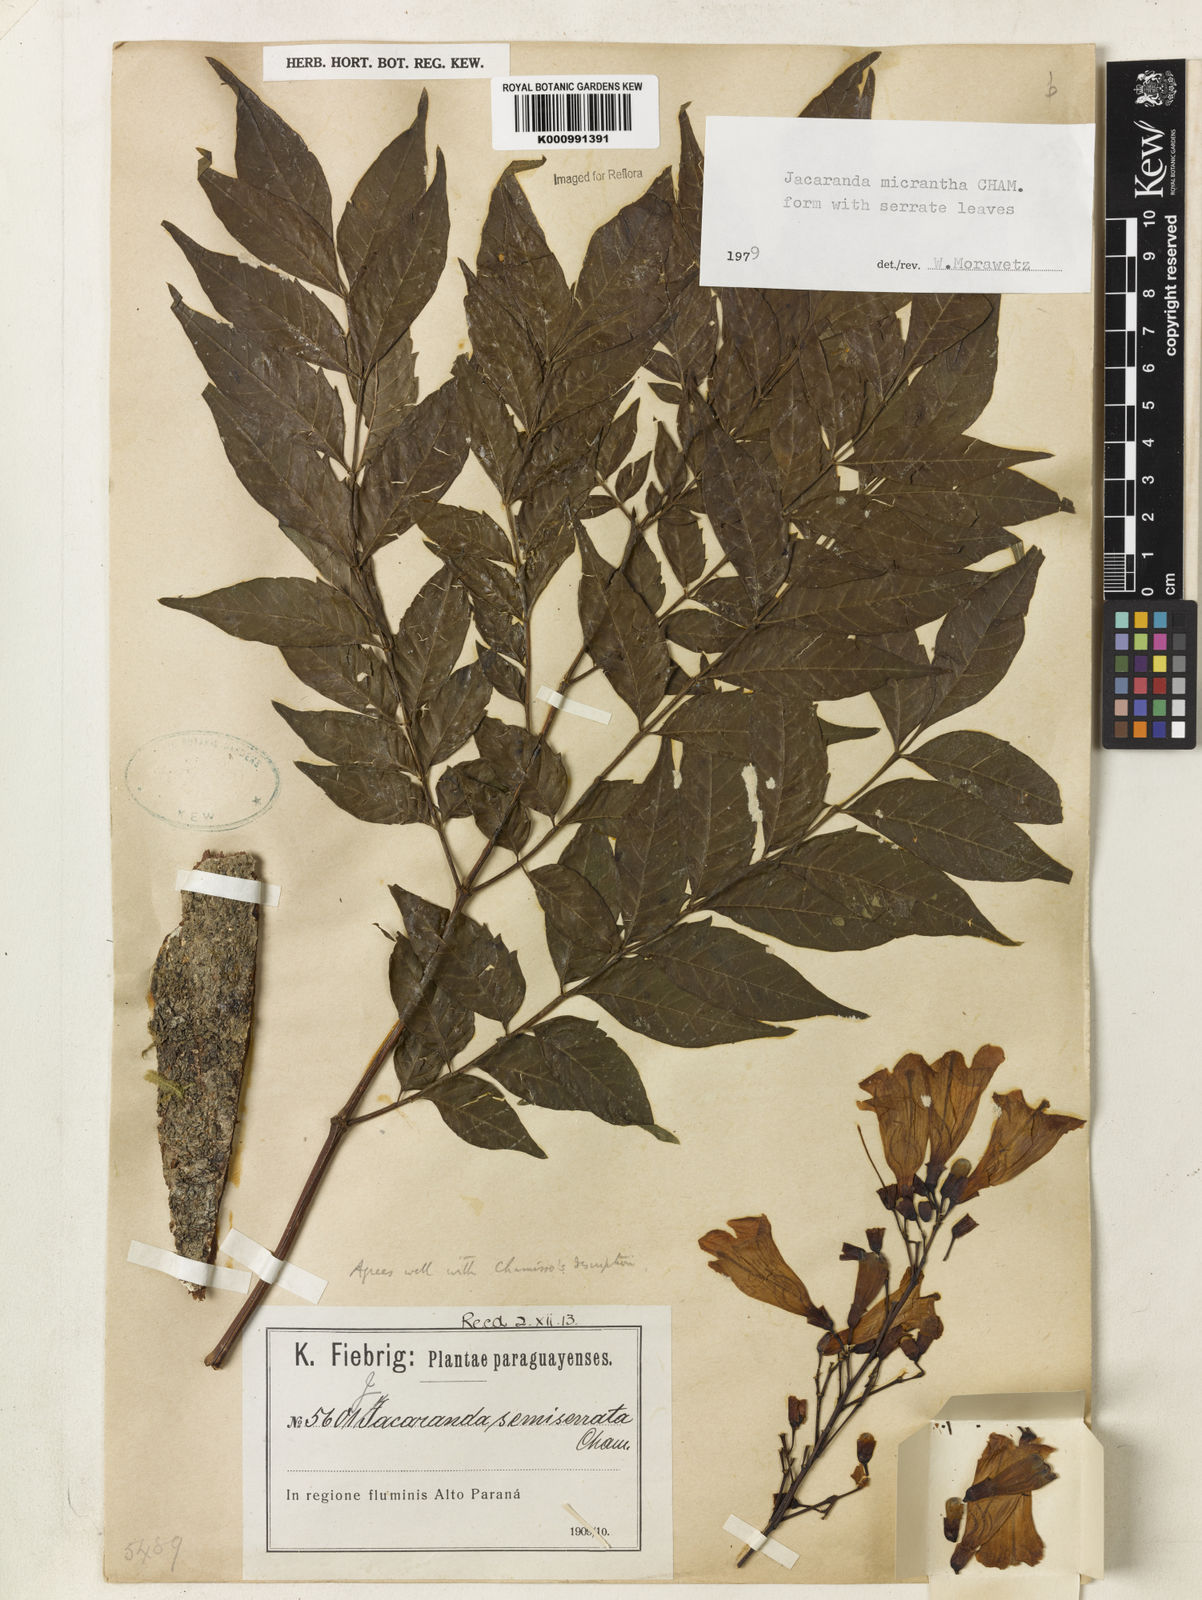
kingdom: Plantae
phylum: Tracheophyta
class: Magnoliopsida
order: Lamiales
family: Bignoniaceae
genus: Jacaranda
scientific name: Jacaranda micrantha
